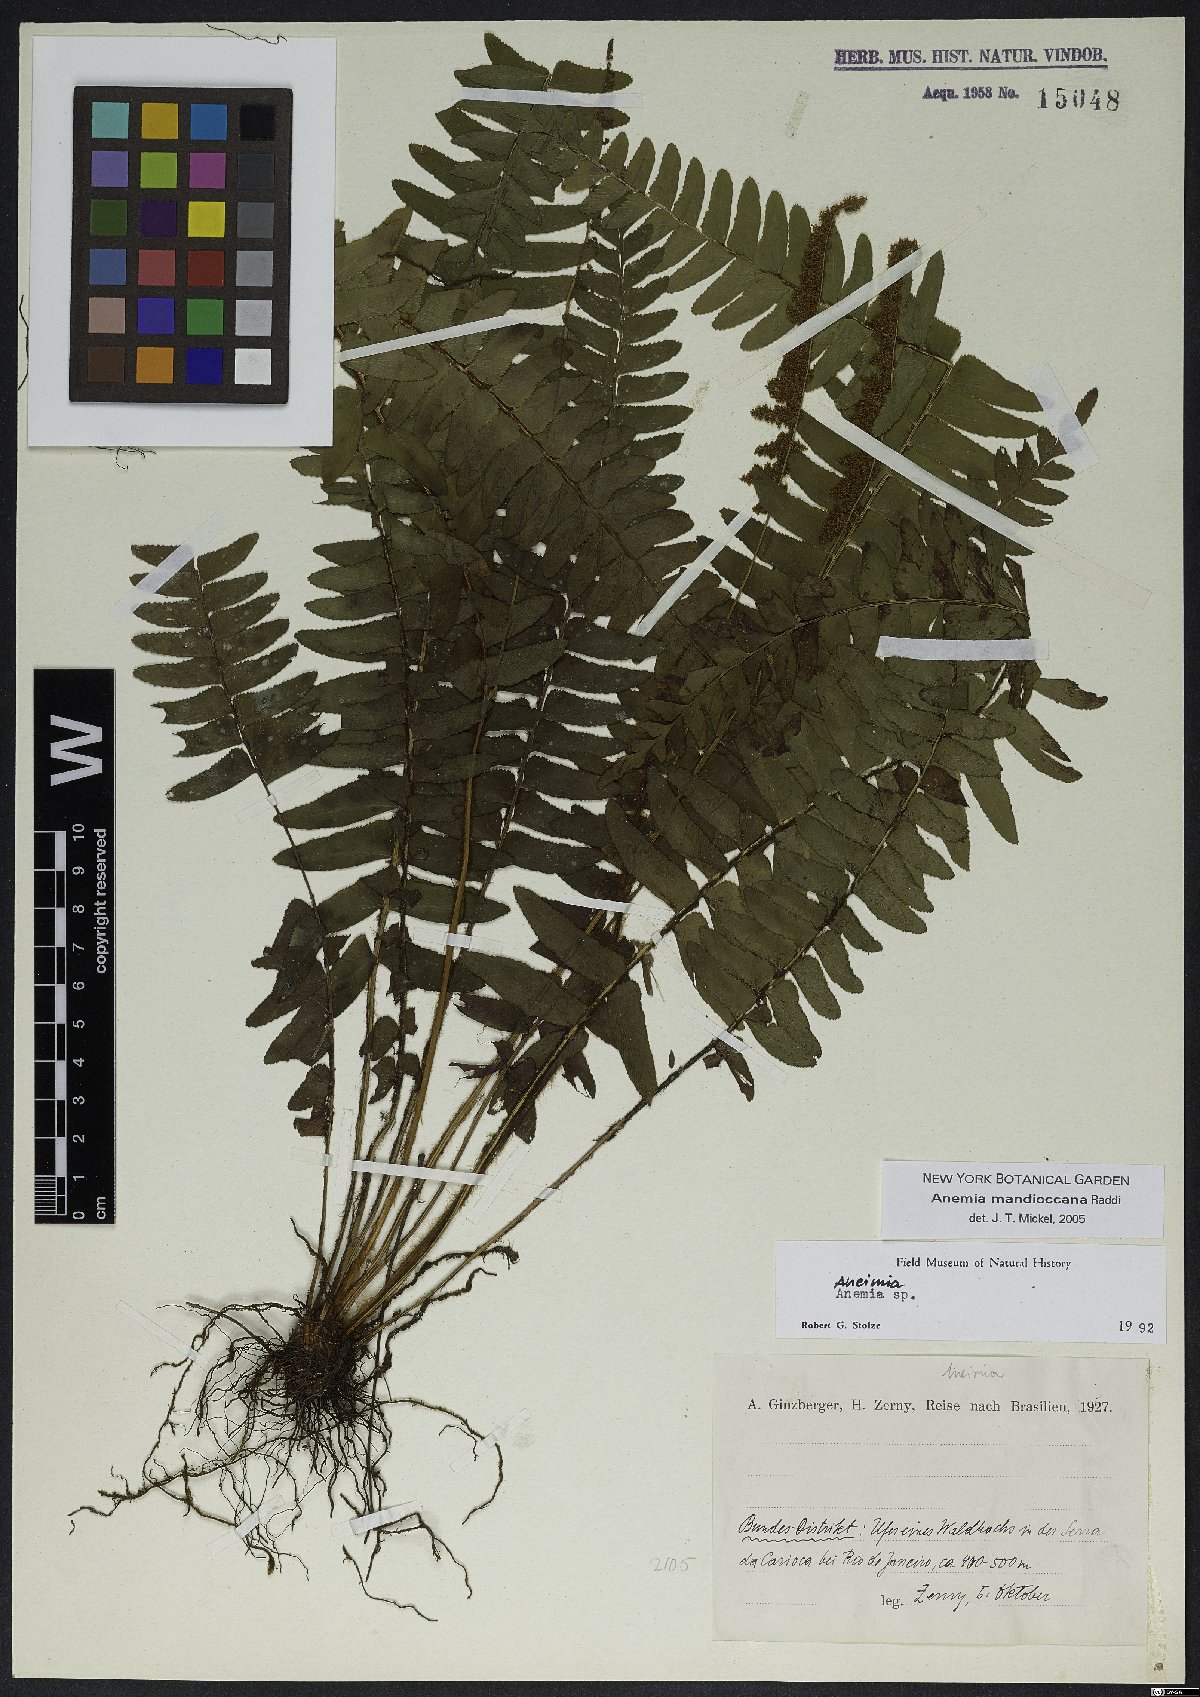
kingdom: Plantae
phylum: Tracheophyta
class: Polypodiopsida
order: Schizaeales
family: Anemiaceae
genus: Anemia
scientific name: Anemia mandiocana
